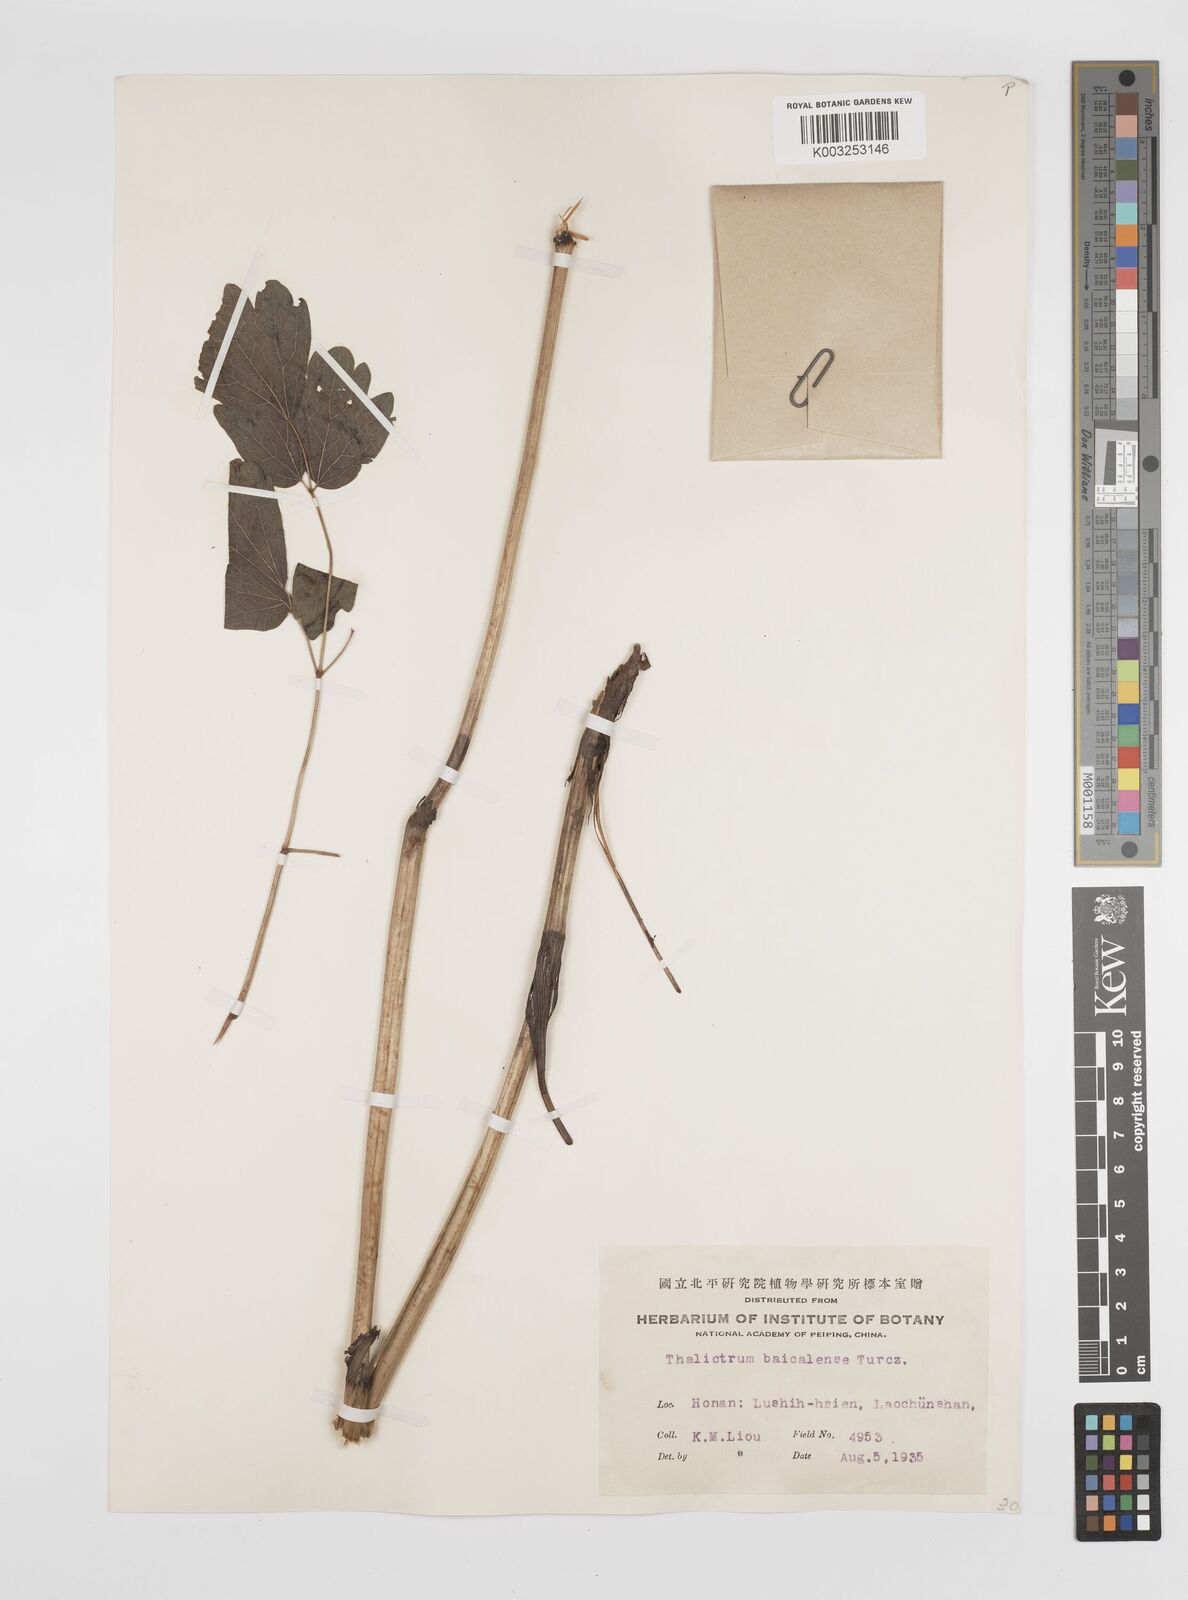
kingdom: Plantae
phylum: Tracheophyta
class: Magnoliopsida
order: Ranunculales
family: Ranunculaceae
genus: Thalictrum
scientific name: Thalictrum baicalense
